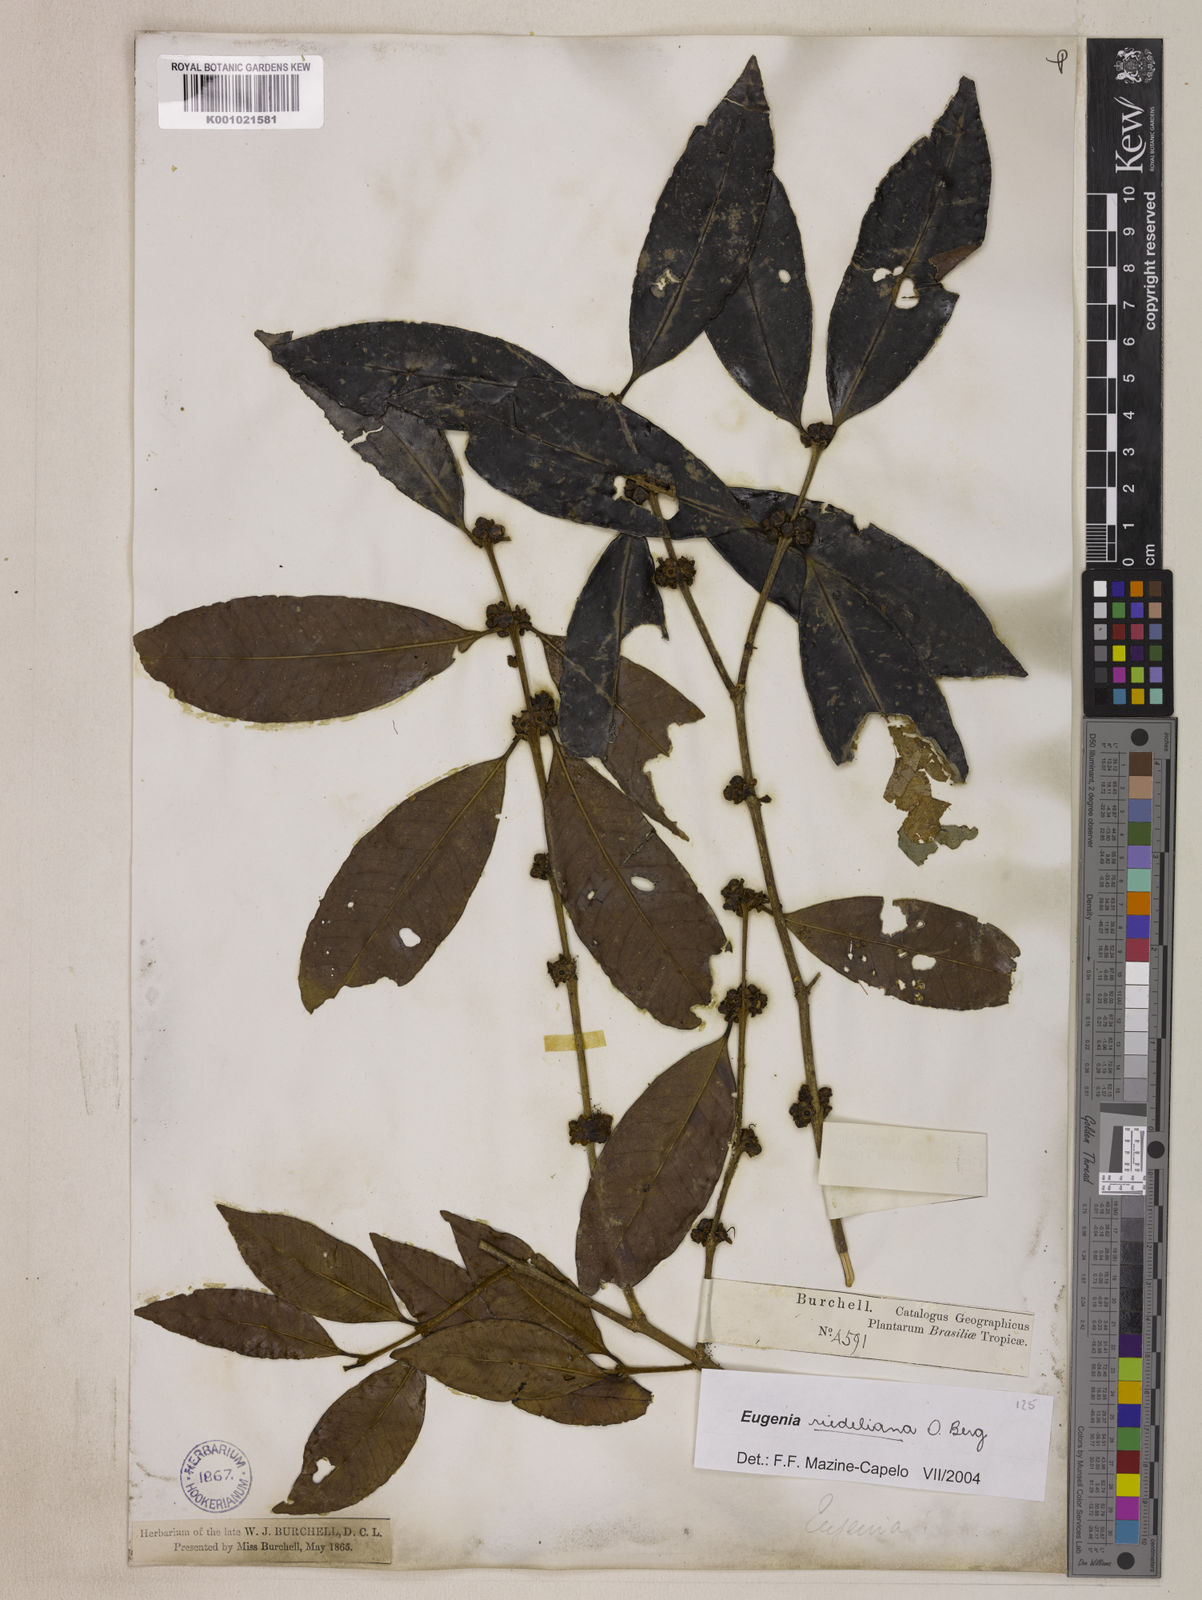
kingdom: Plantae
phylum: Tracheophyta
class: Magnoliopsida
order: Myrtales
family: Myrtaceae
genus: Eugenia
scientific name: Eugenia verticillata
